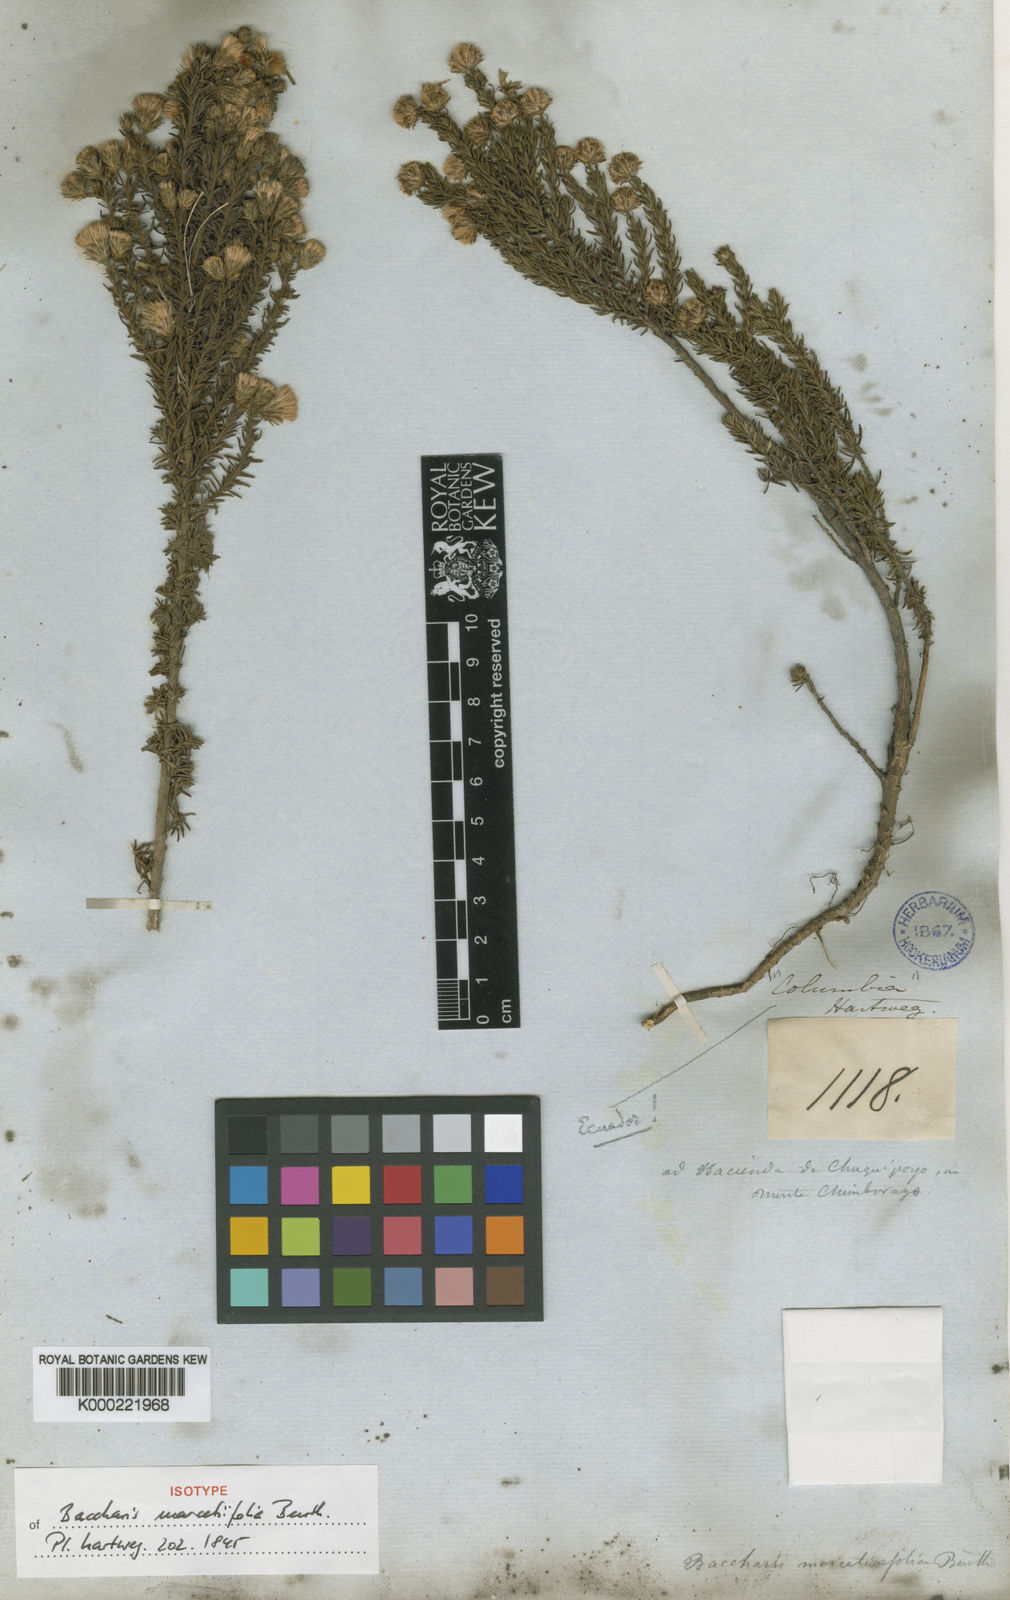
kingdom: Plantae
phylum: Tracheophyta
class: Magnoliopsida
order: Asterales
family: Asteraceae
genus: Baccharis
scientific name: Baccharis marcetiifolia
